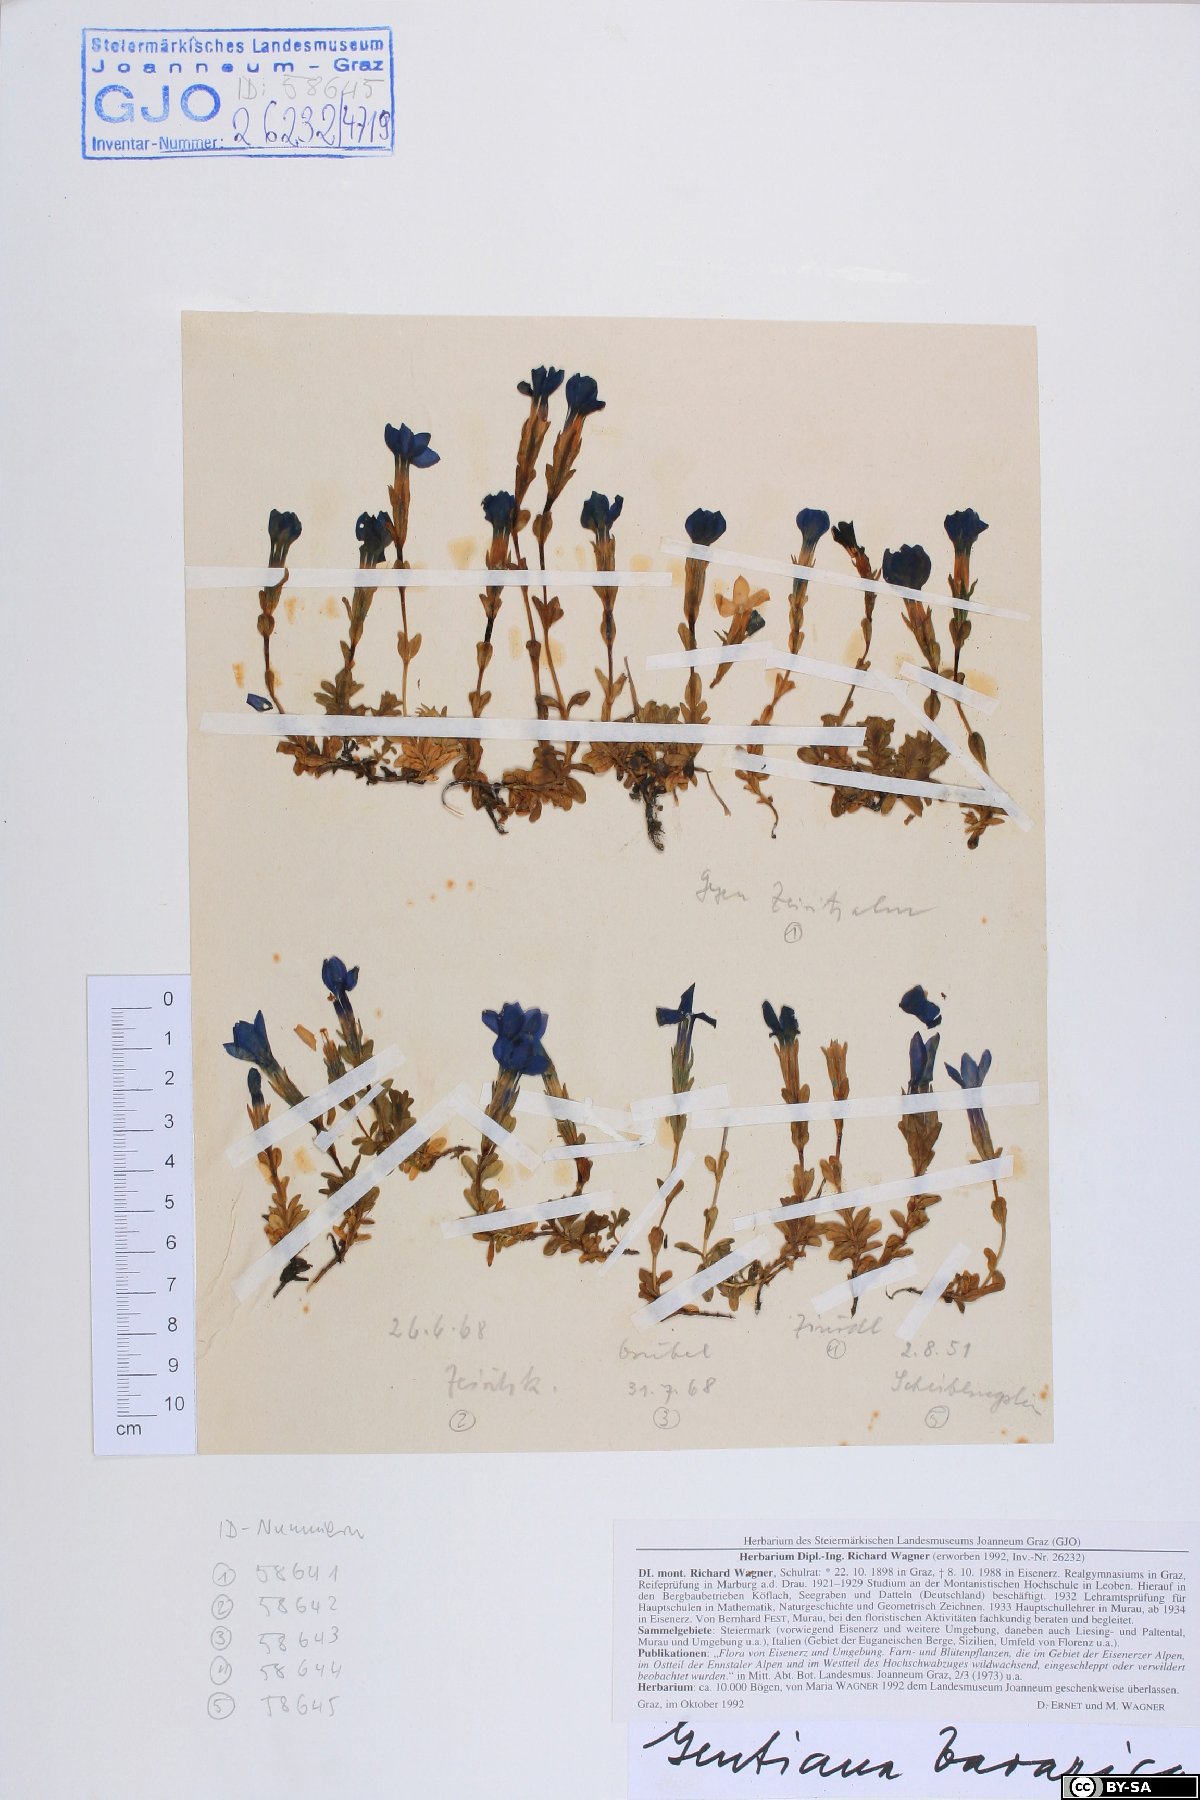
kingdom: Plantae
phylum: Tracheophyta
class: Magnoliopsida
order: Gentianales
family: Gentianaceae
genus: Gentiana
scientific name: Gentiana bavarica
